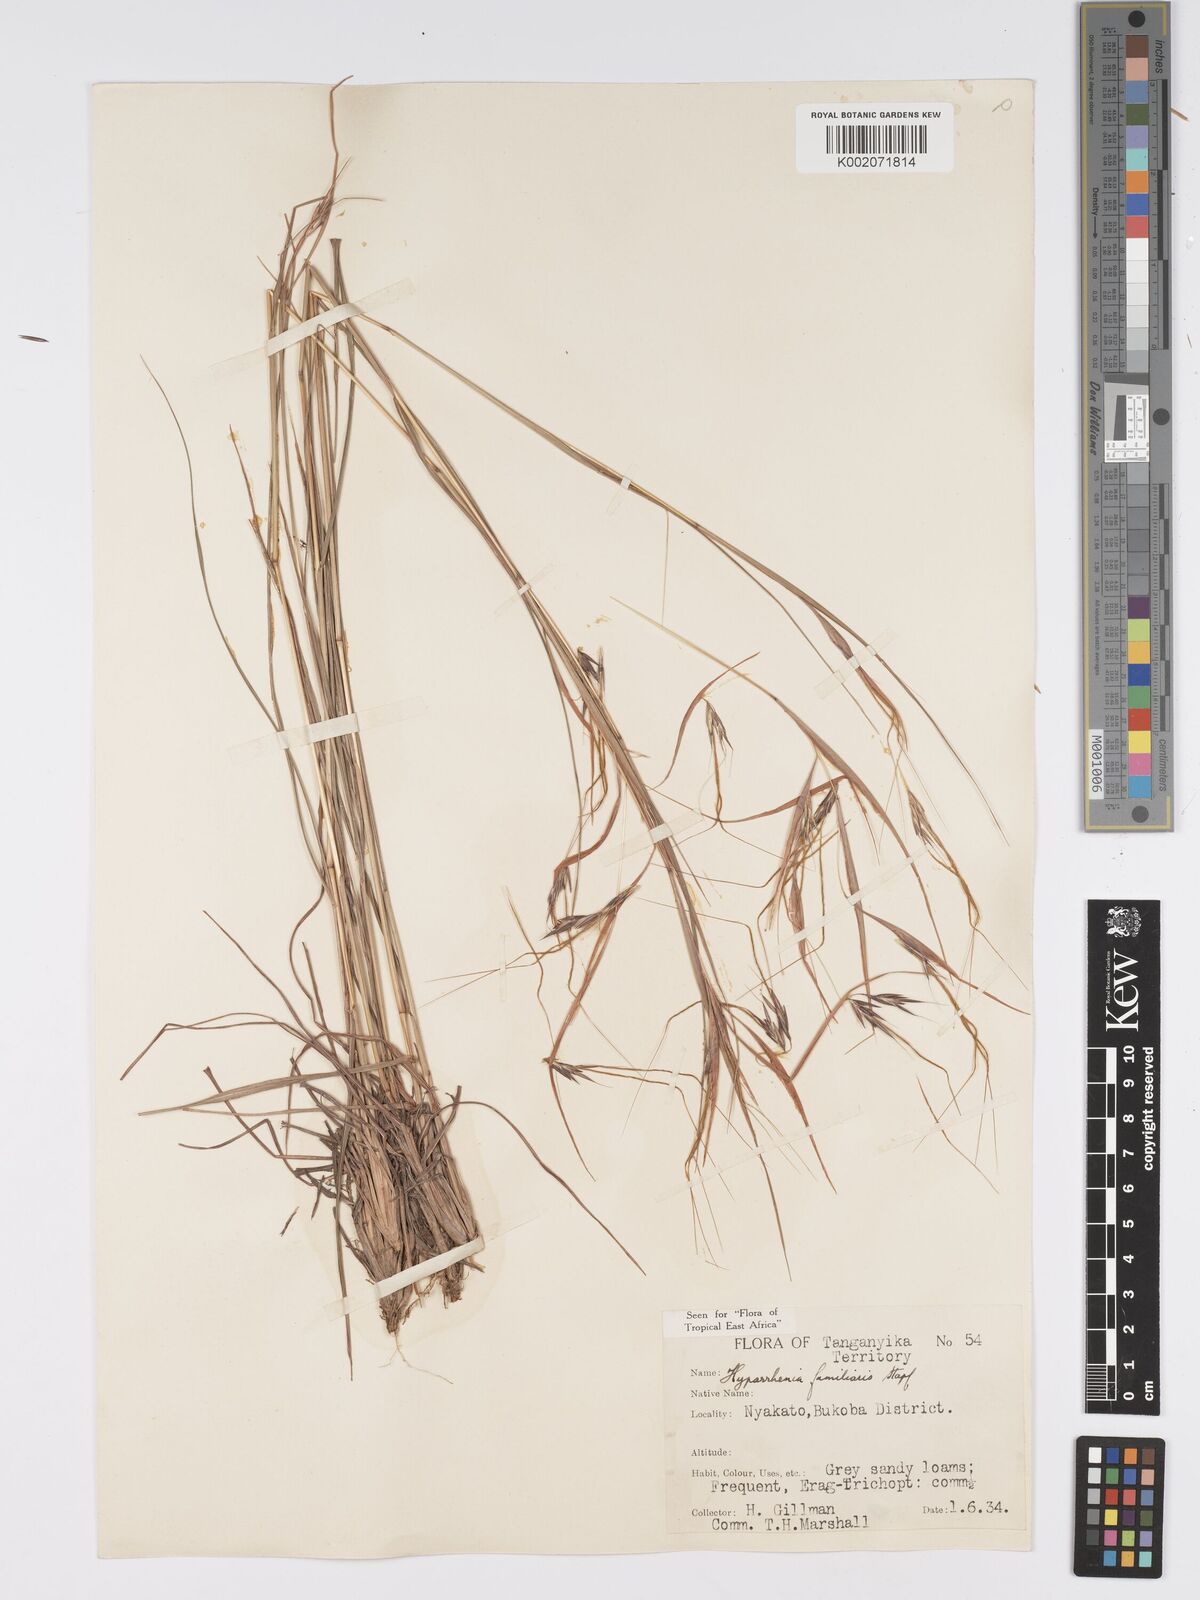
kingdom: Plantae
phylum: Tracheophyta
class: Liliopsida
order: Poales
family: Poaceae
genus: Hyparrhenia
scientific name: Hyparrhenia familiaris
